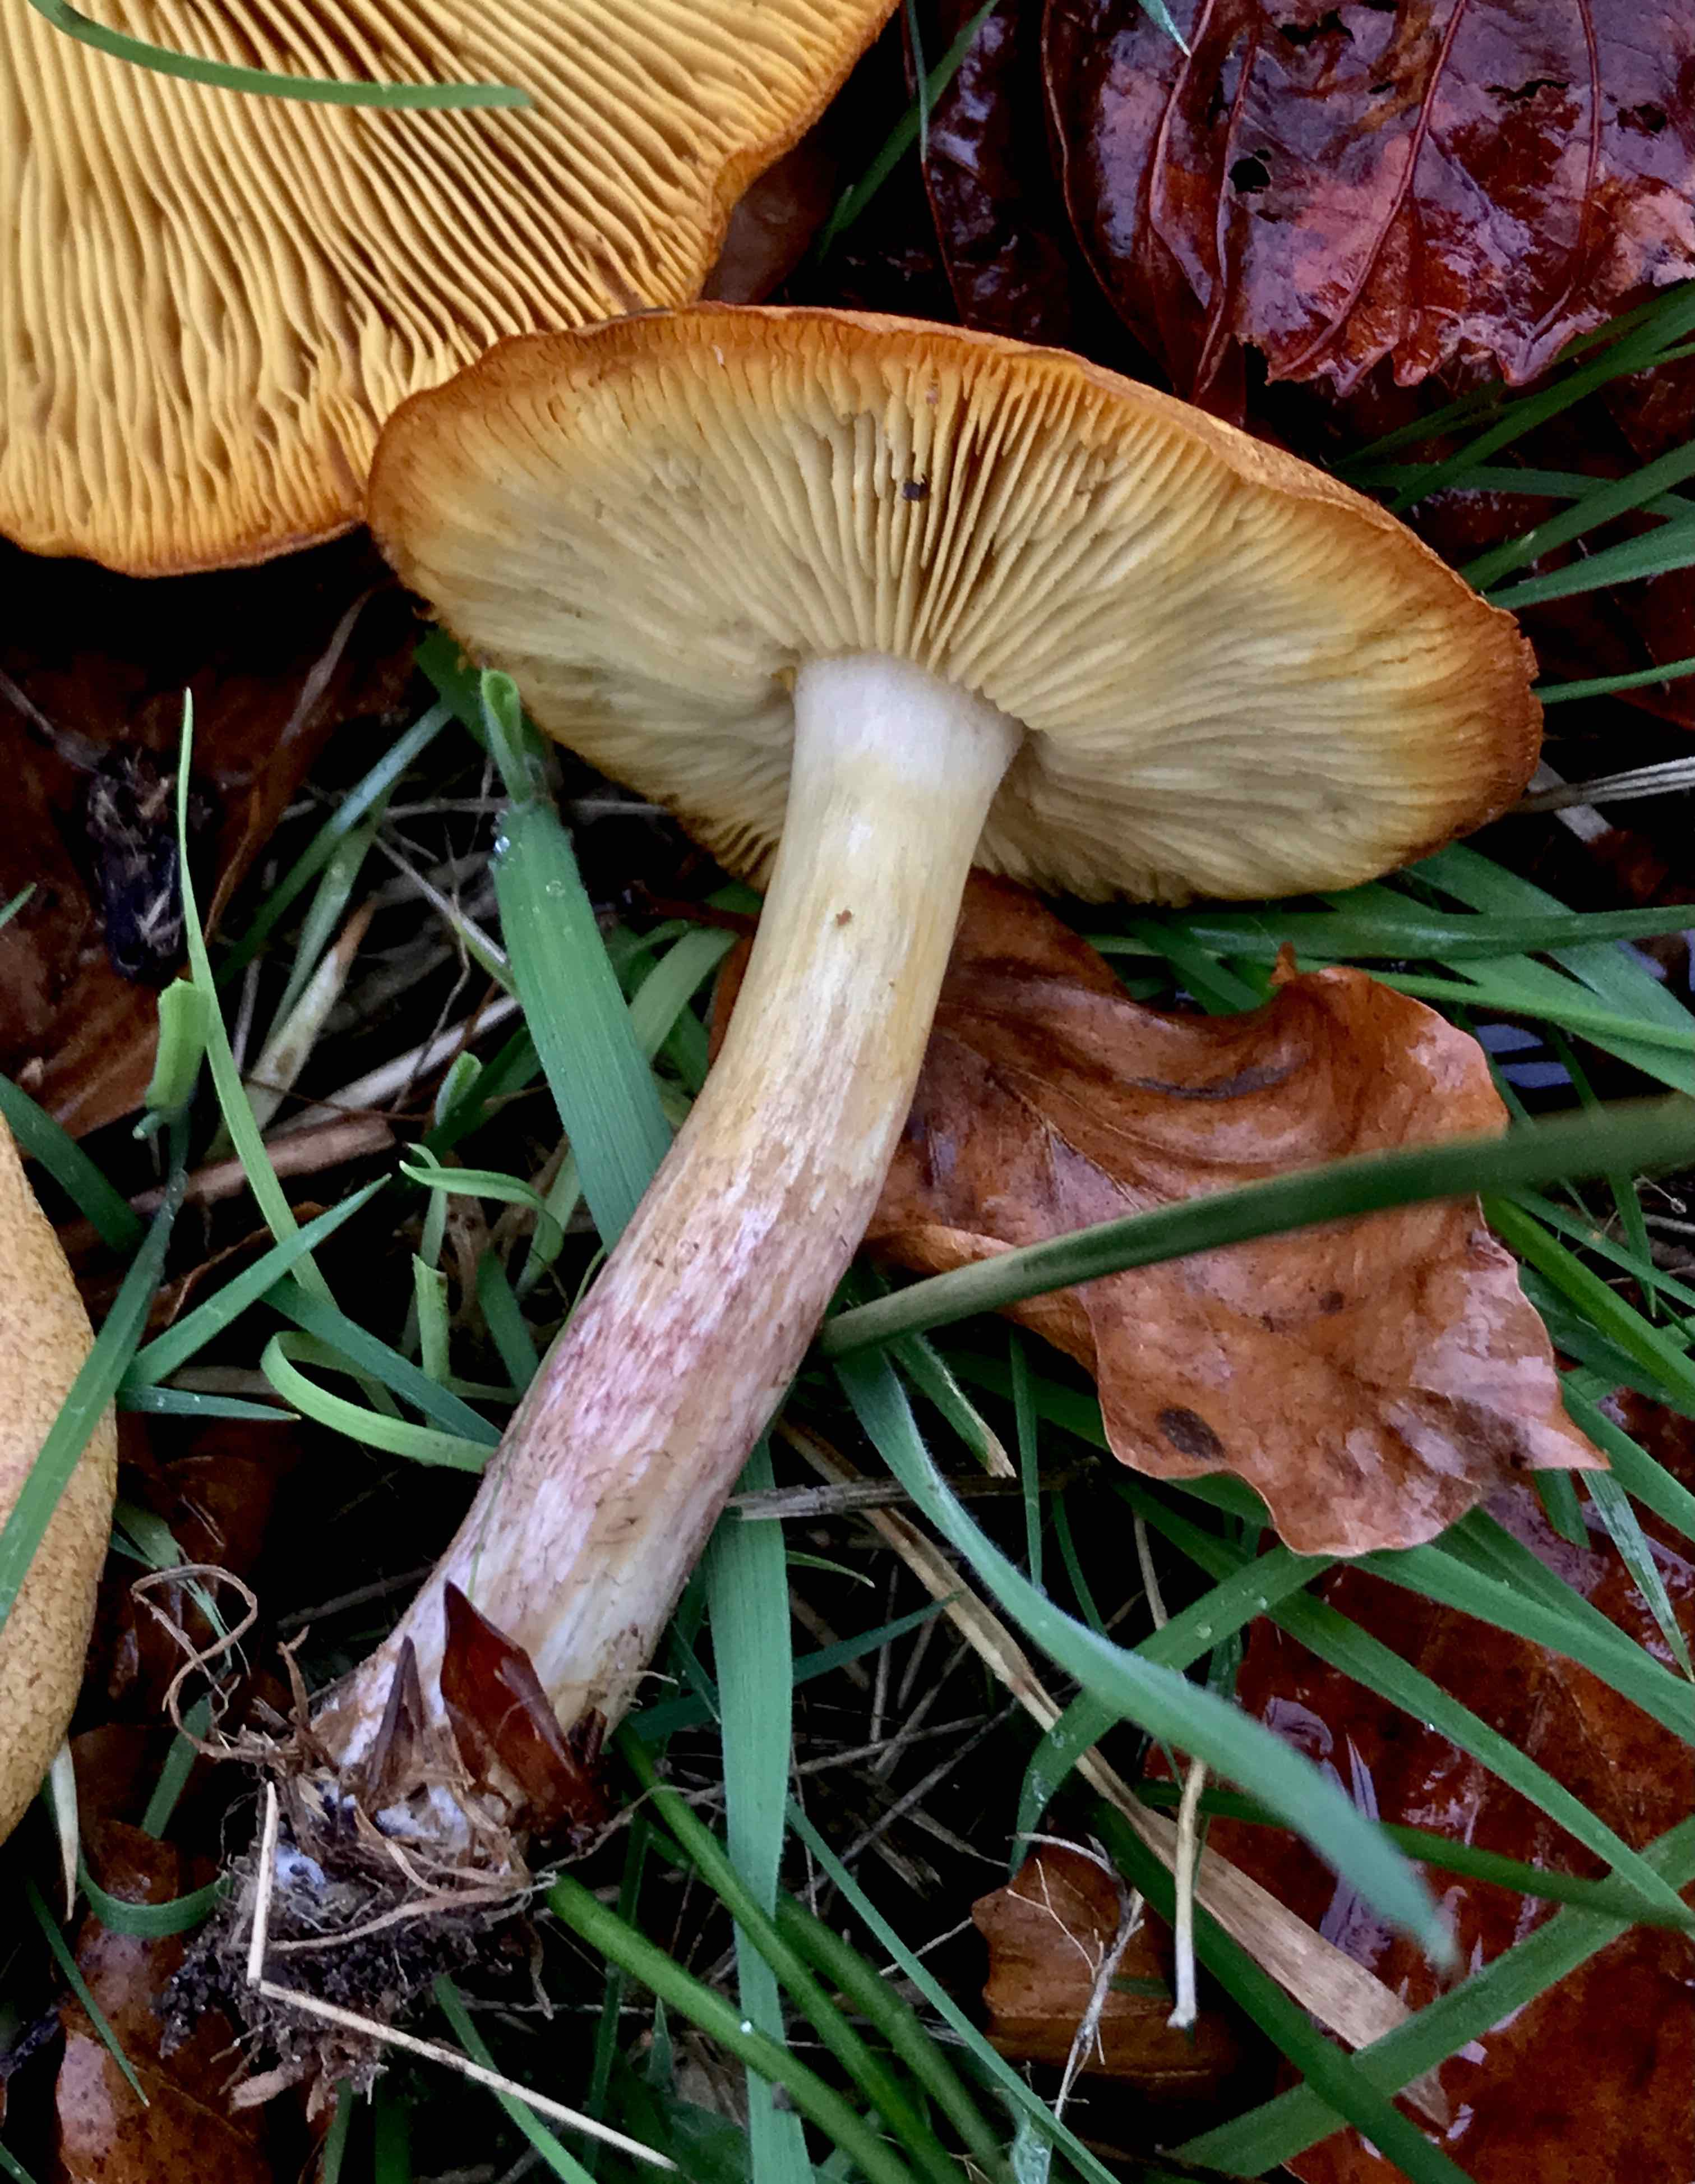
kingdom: Fungi
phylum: Basidiomycota
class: Agaricomycetes
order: Agaricales
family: Tricholomataceae
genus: Tricholomopsis
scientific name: Tricholomopsis rutilans
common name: purpur-væbnerhat
